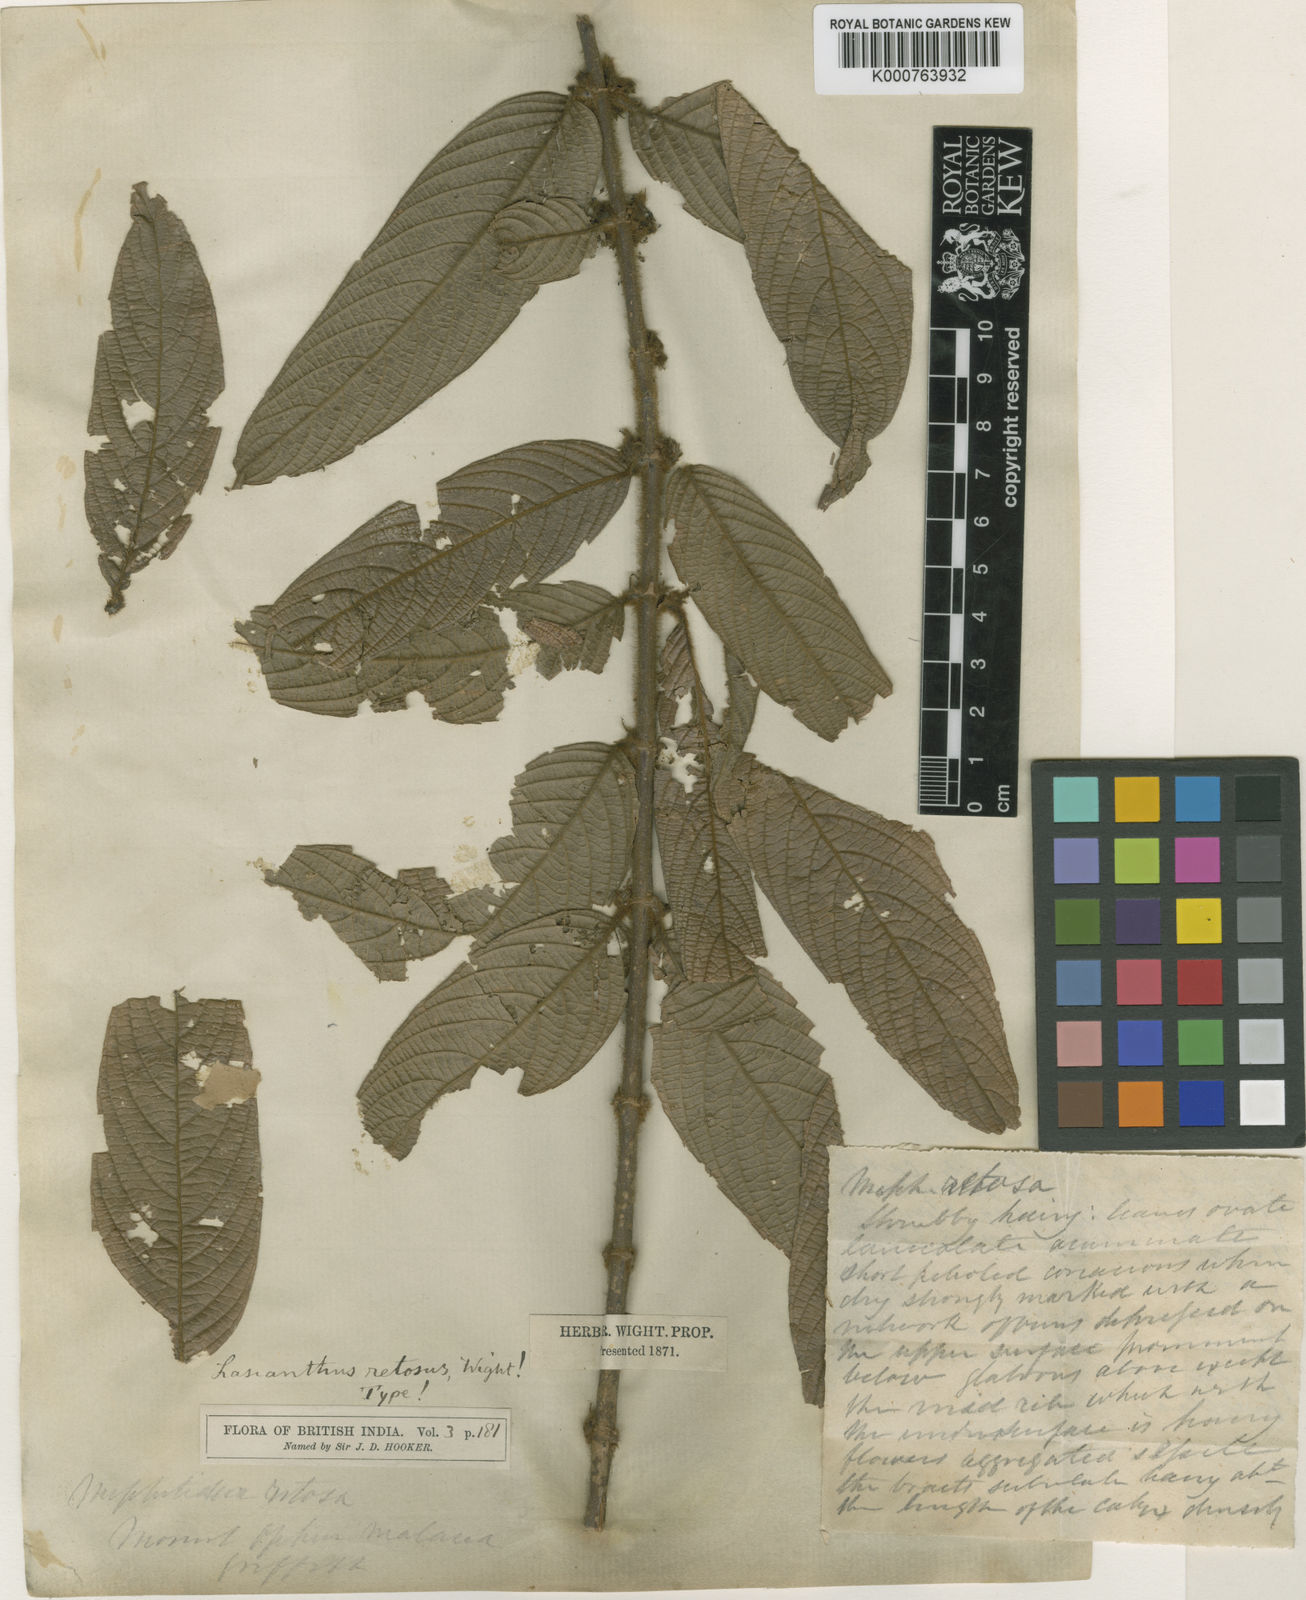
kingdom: Plantae
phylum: Tracheophyta
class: Magnoliopsida
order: Gentianales
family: Rubiaceae
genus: Lasianthus
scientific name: Lasianthus pilosus
